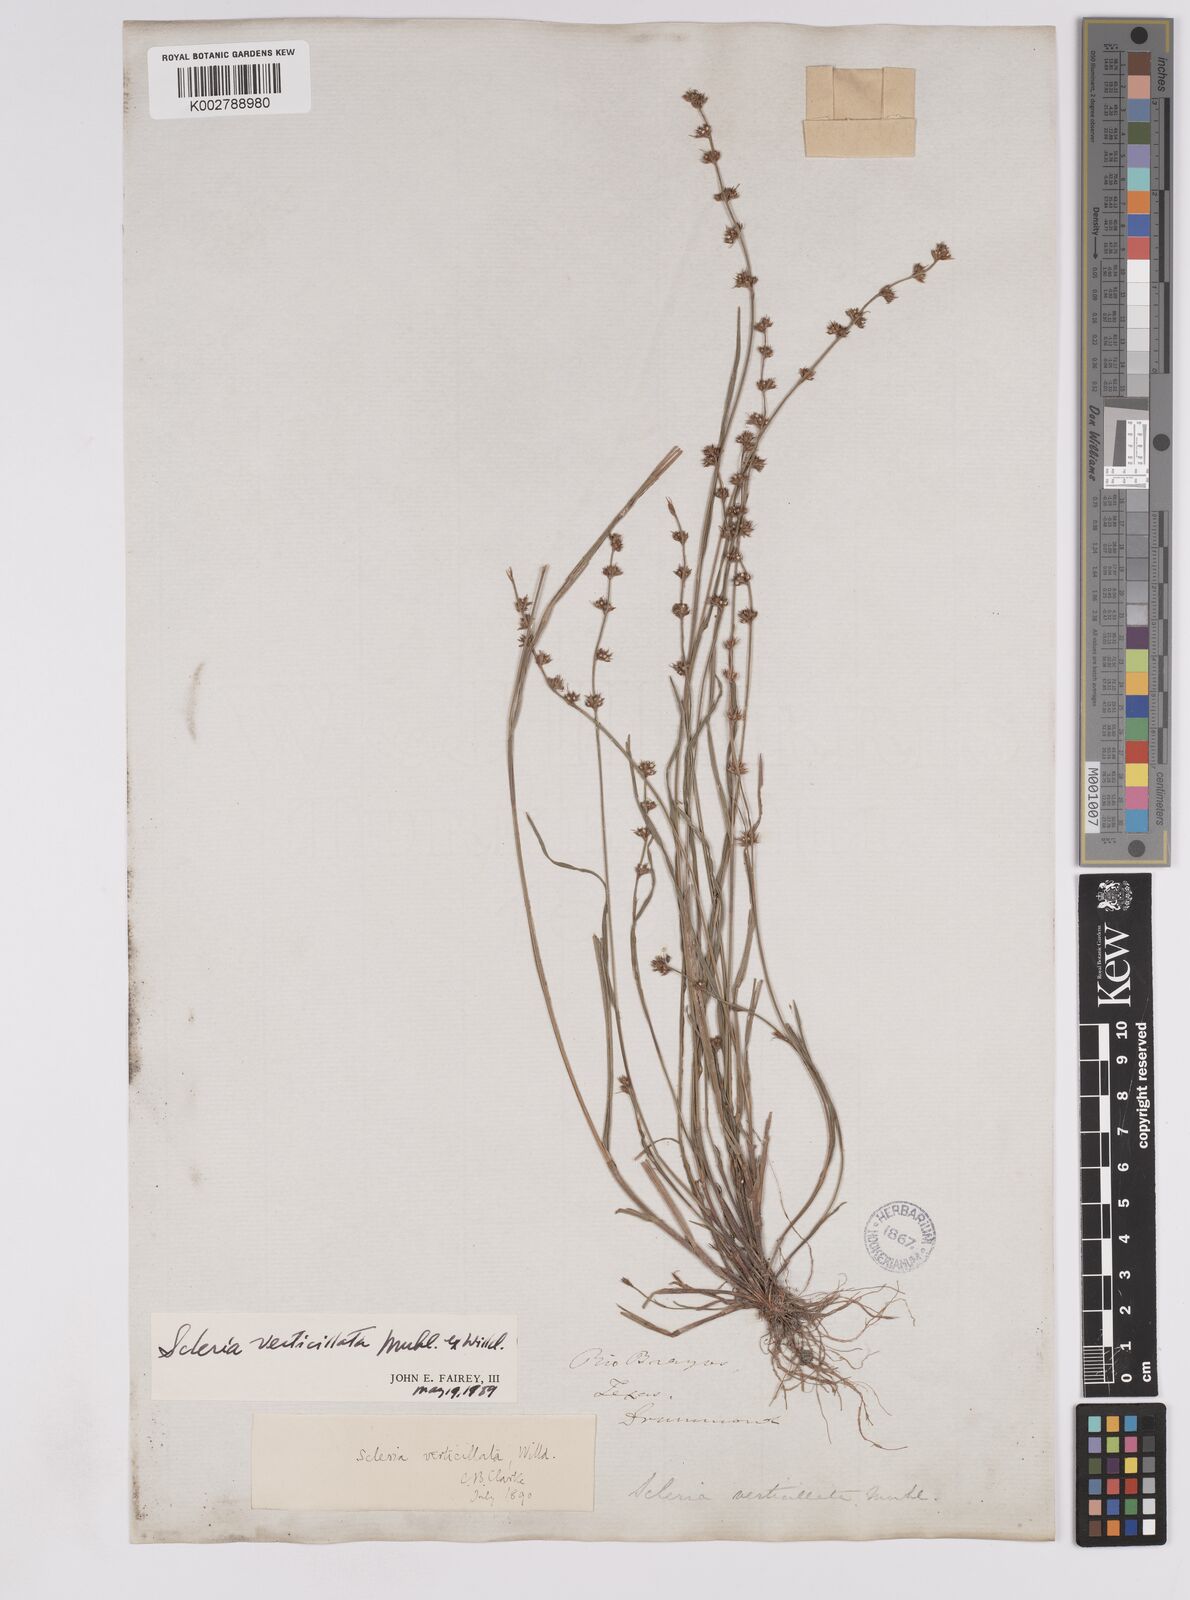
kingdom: Plantae
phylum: Tracheophyta
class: Liliopsida
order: Poales
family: Cyperaceae
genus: Scleria
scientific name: Scleria verticillata
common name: Low nutrush
